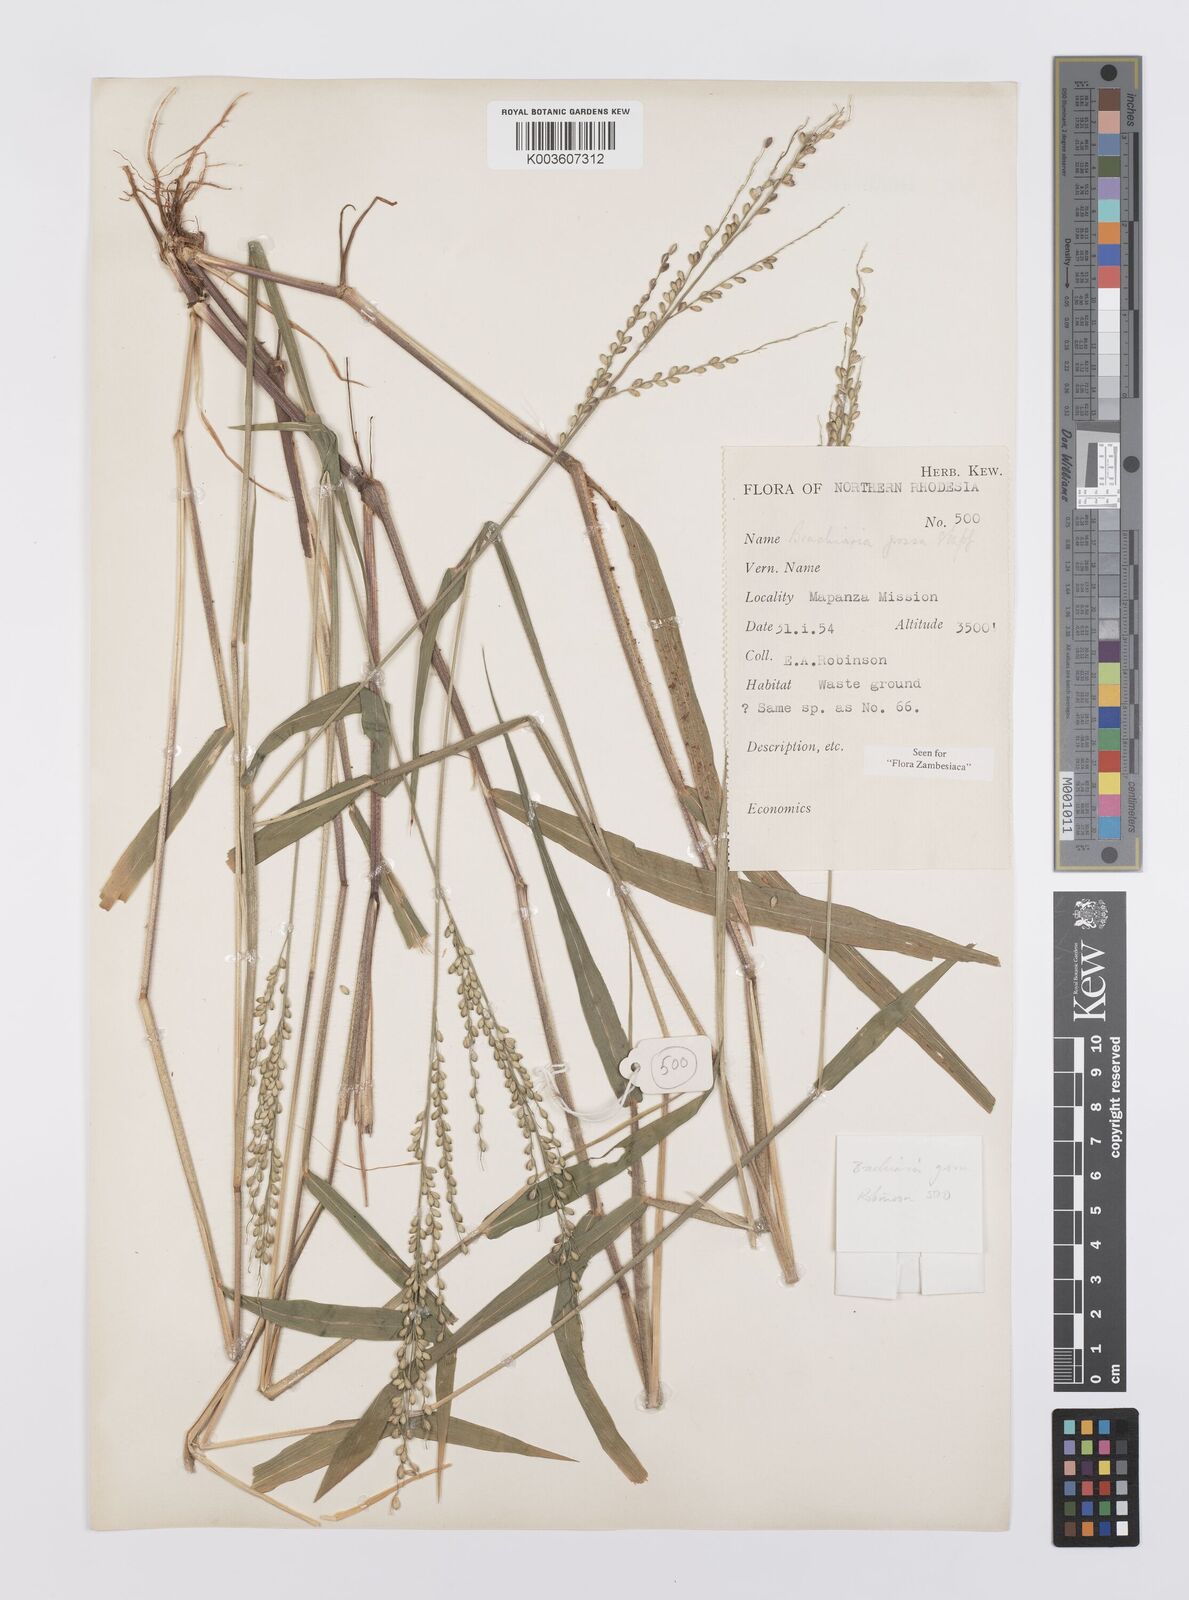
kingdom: Plantae
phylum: Tracheophyta
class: Liliopsida
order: Poales
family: Poaceae
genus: Urochloa
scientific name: Urochloa Brachiaria grossa
